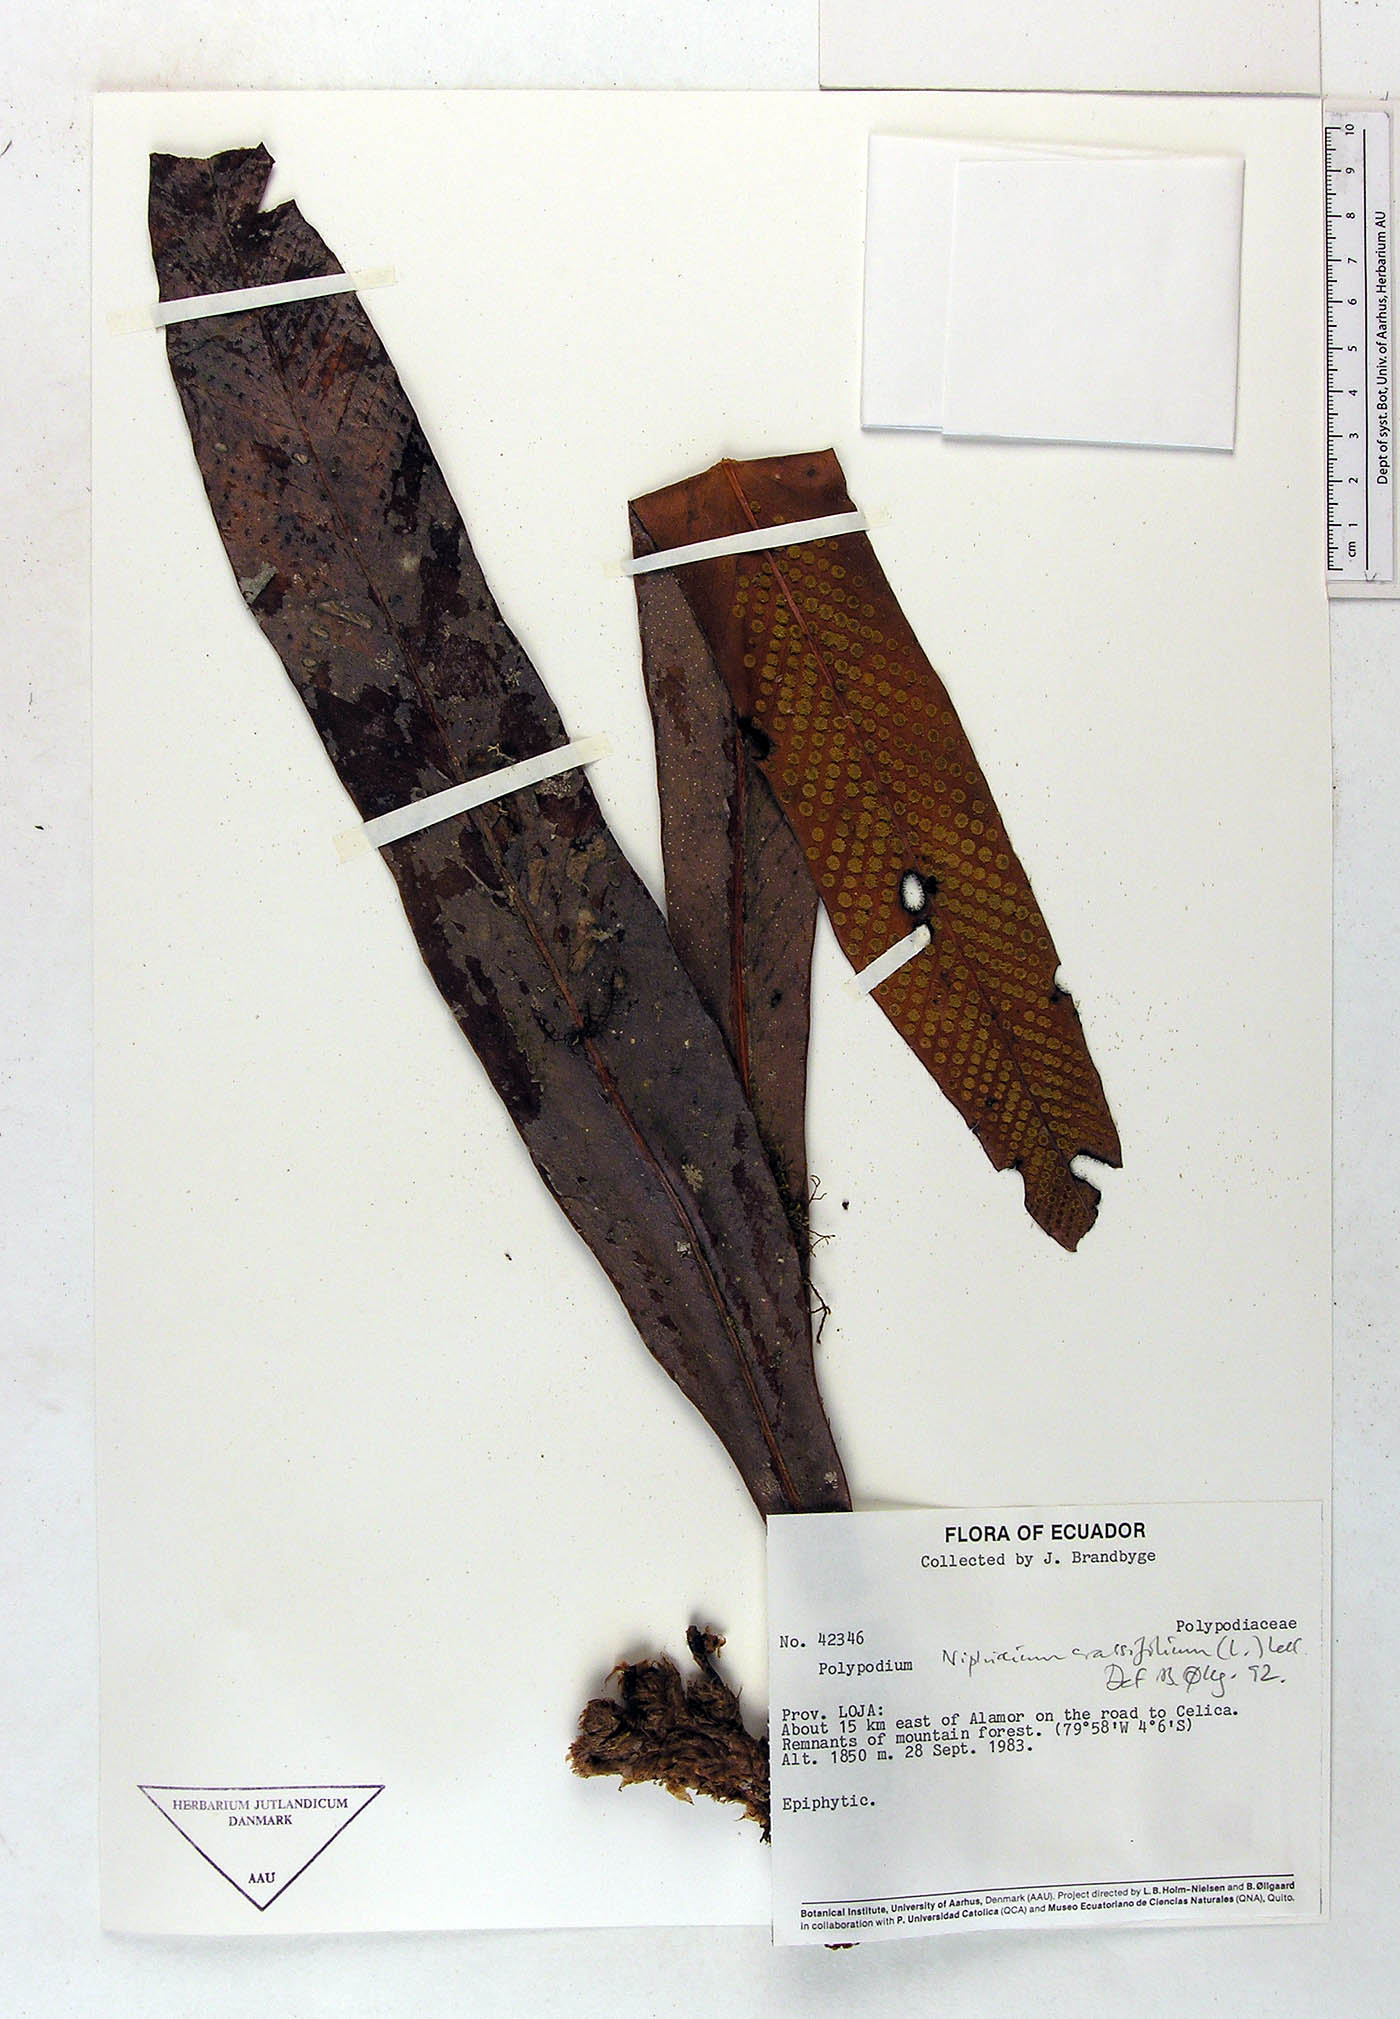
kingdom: Plantae
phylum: Tracheophyta
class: Polypodiopsida
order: Polypodiales
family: Polypodiaceae
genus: Niphidium
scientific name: Niphidium crassifolium
